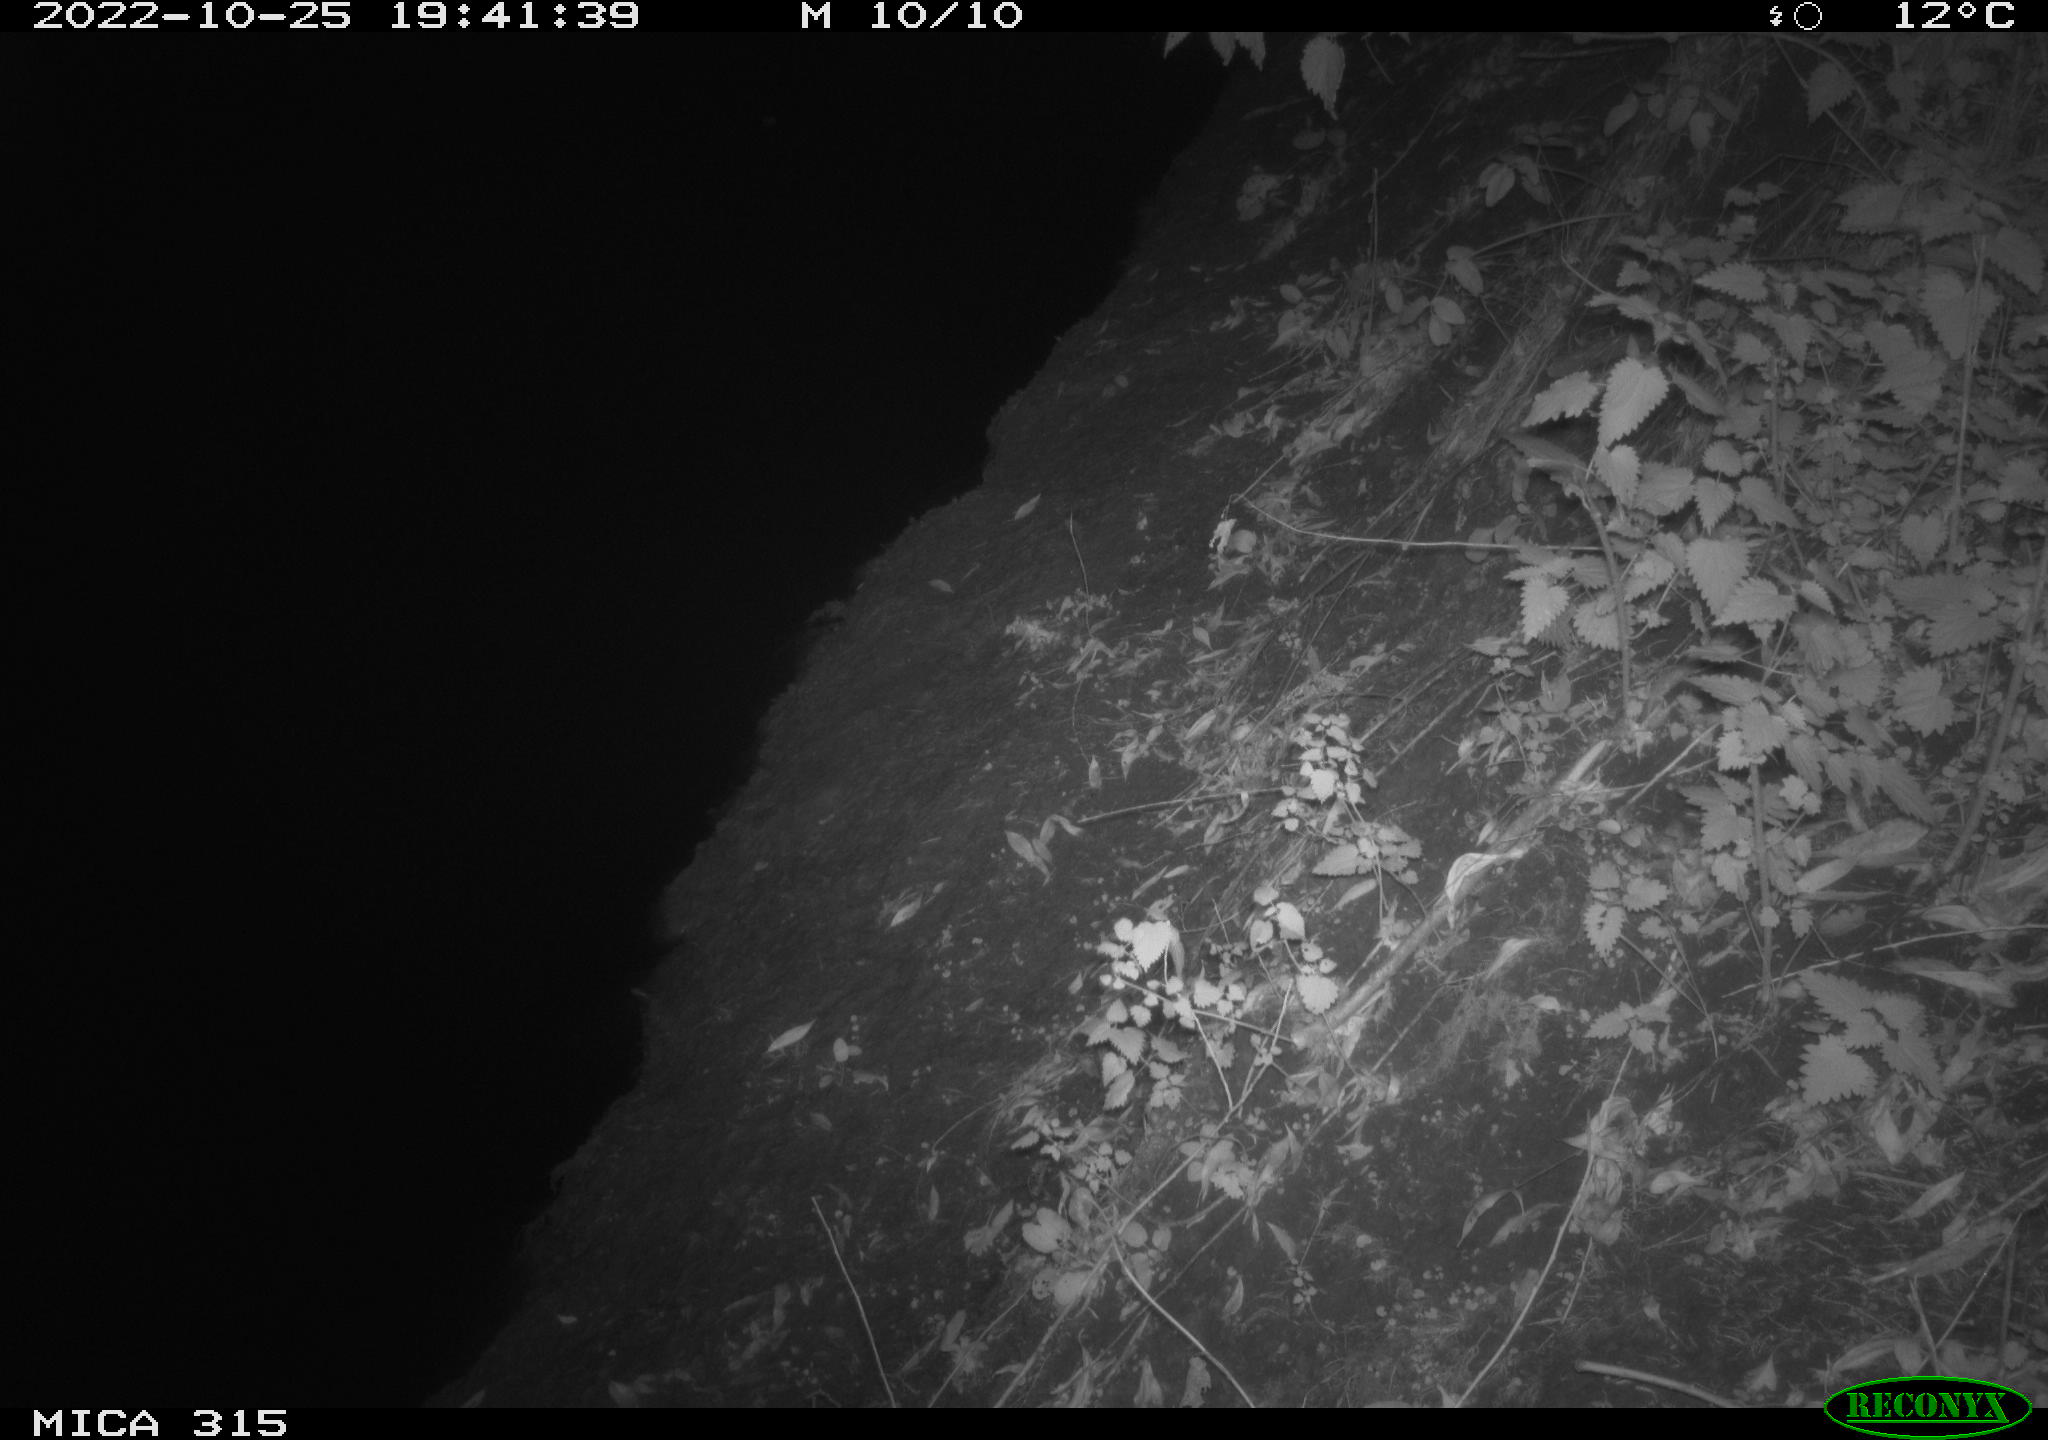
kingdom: Animalia
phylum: Chordata
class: Mammalia
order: Carnivora
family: Canidae
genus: Vulpes
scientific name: Vulpes vulpes
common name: Red fox
